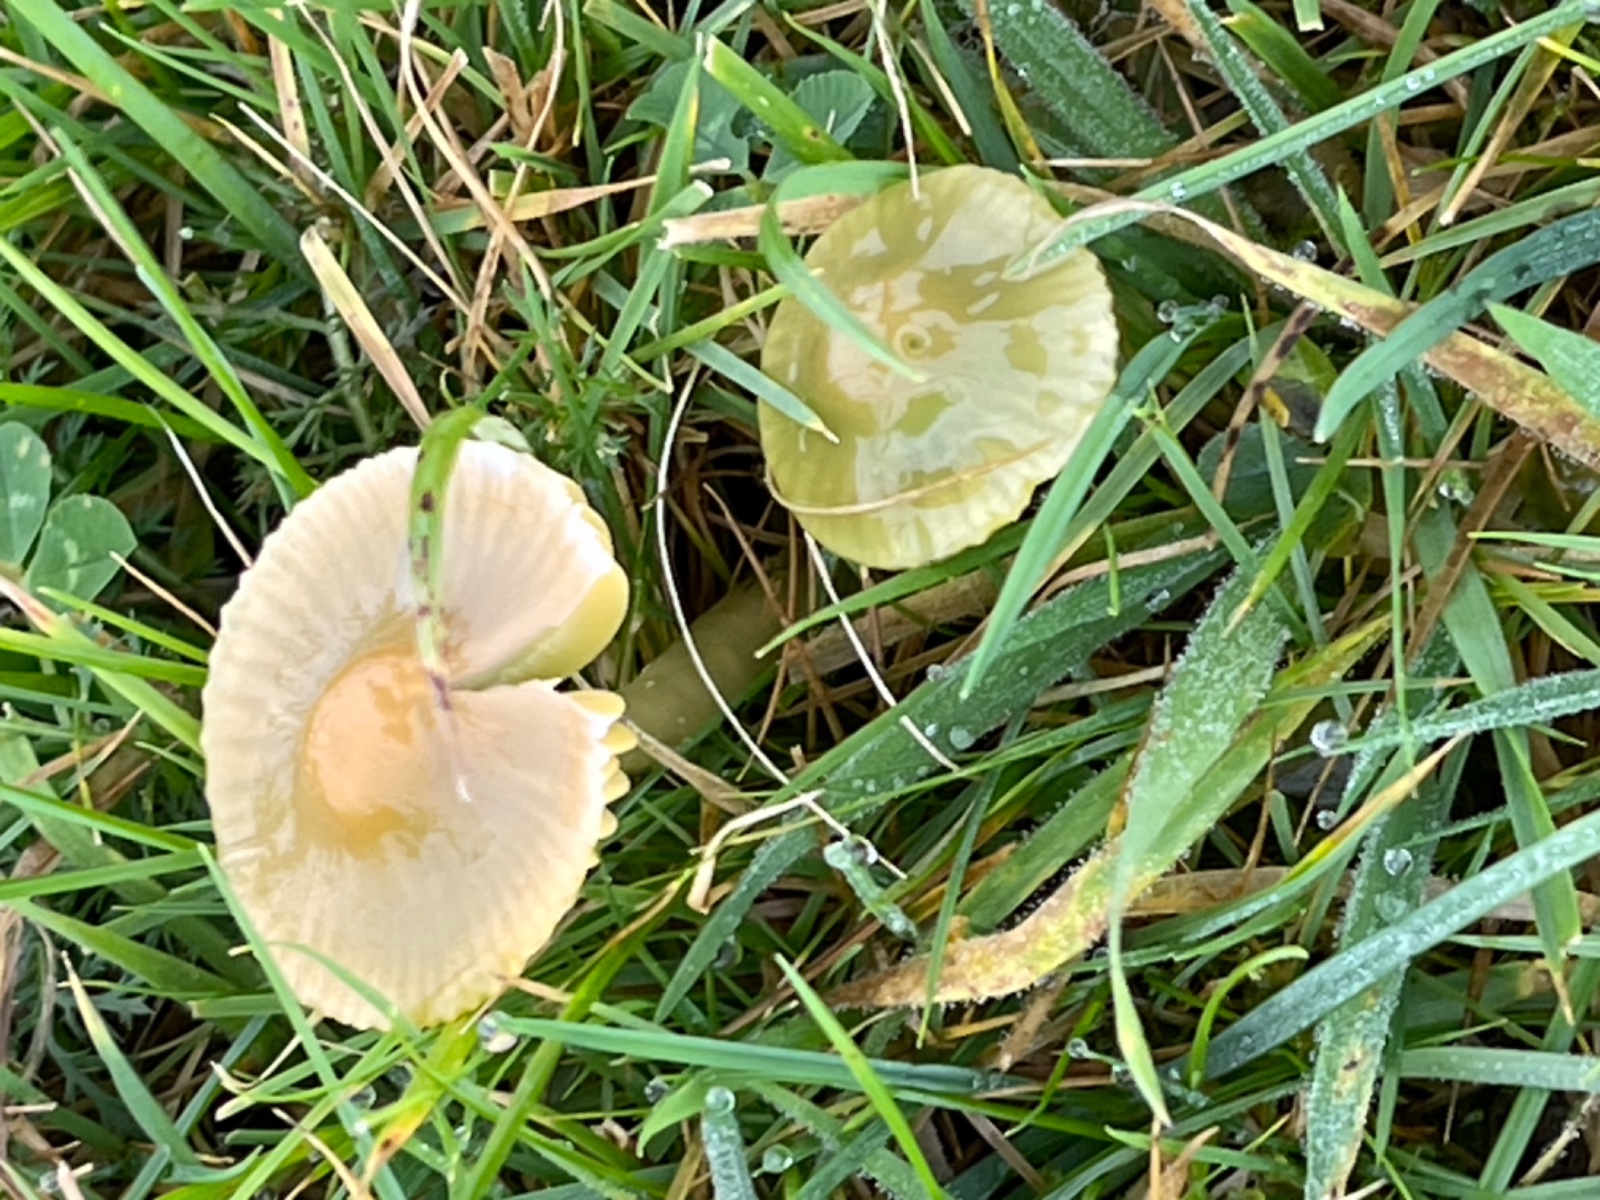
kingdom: Fungi
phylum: Basidiomycota
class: Agaricomycetes
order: Agaricales
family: Hygrophoraceae
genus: Gliophorus
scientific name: Gliophorus psittacinus
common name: papegøje-vokshat
